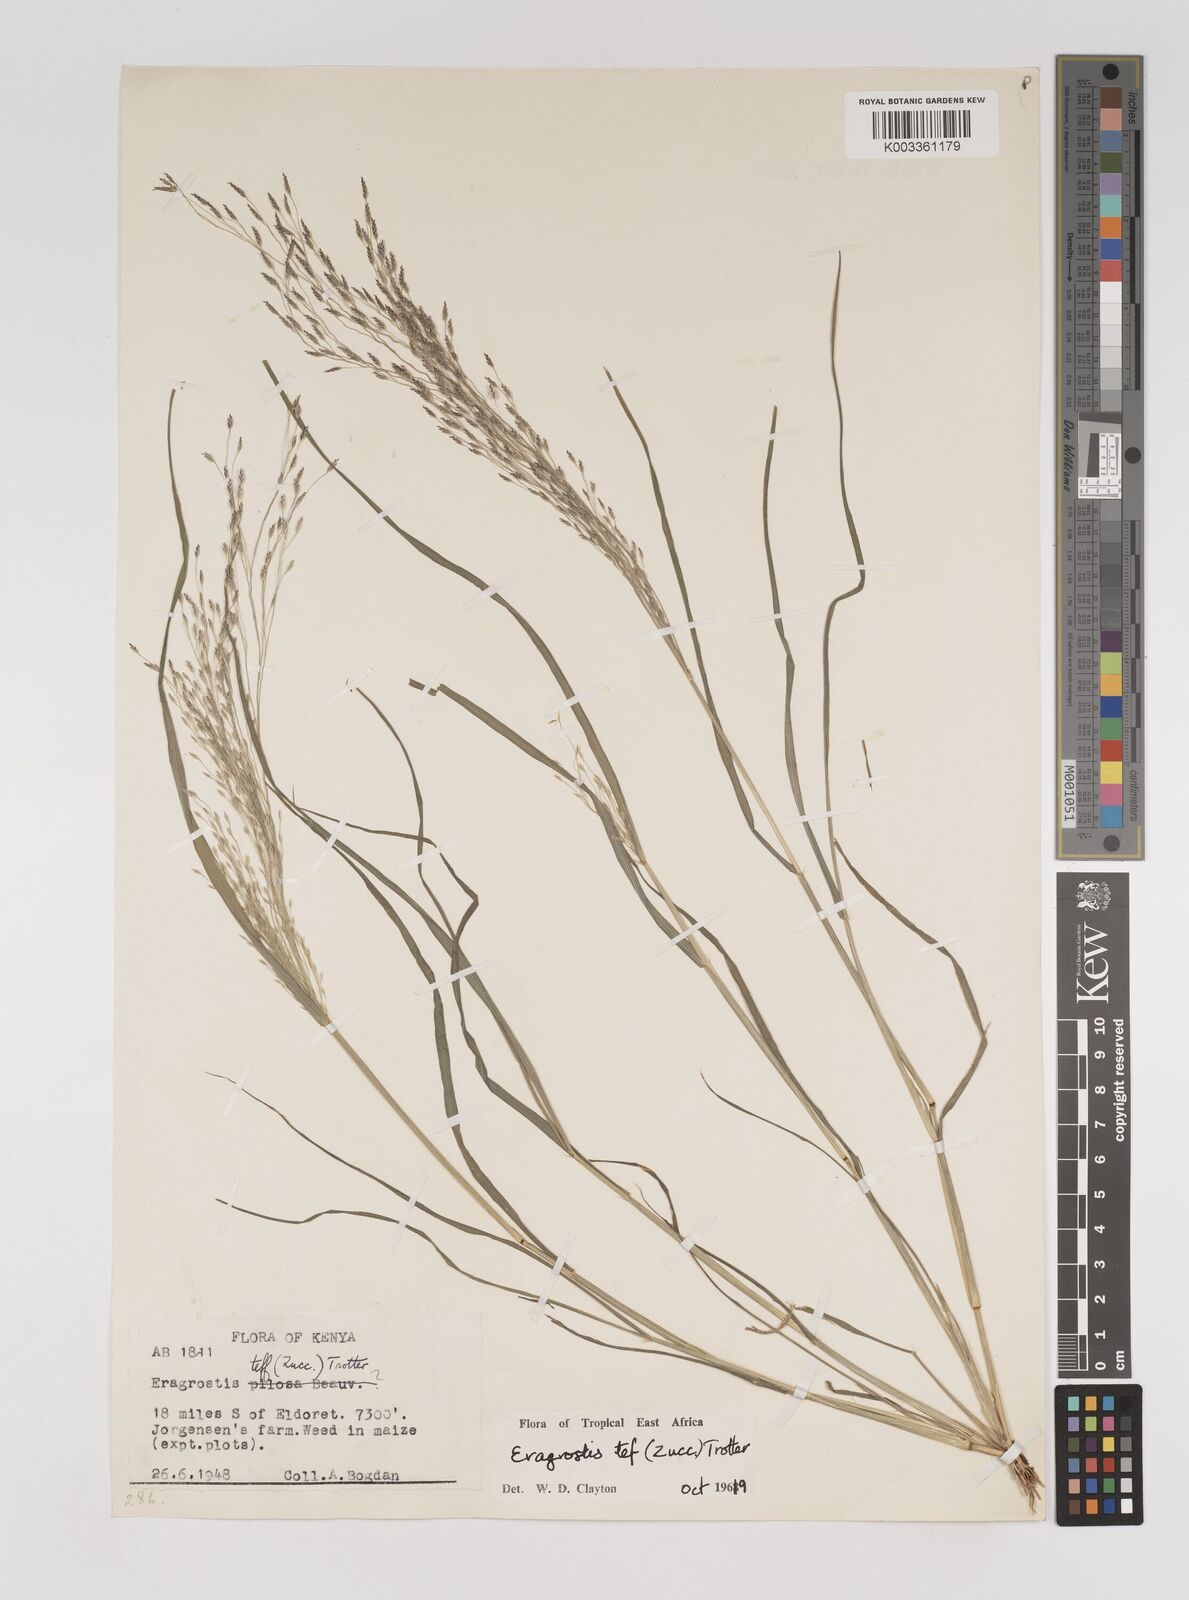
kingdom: Plantae
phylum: Tracheophyta
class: Liliopsida
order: Poales
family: Poaceae
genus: Eragrostis
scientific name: Eragrostis tef
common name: Teff
